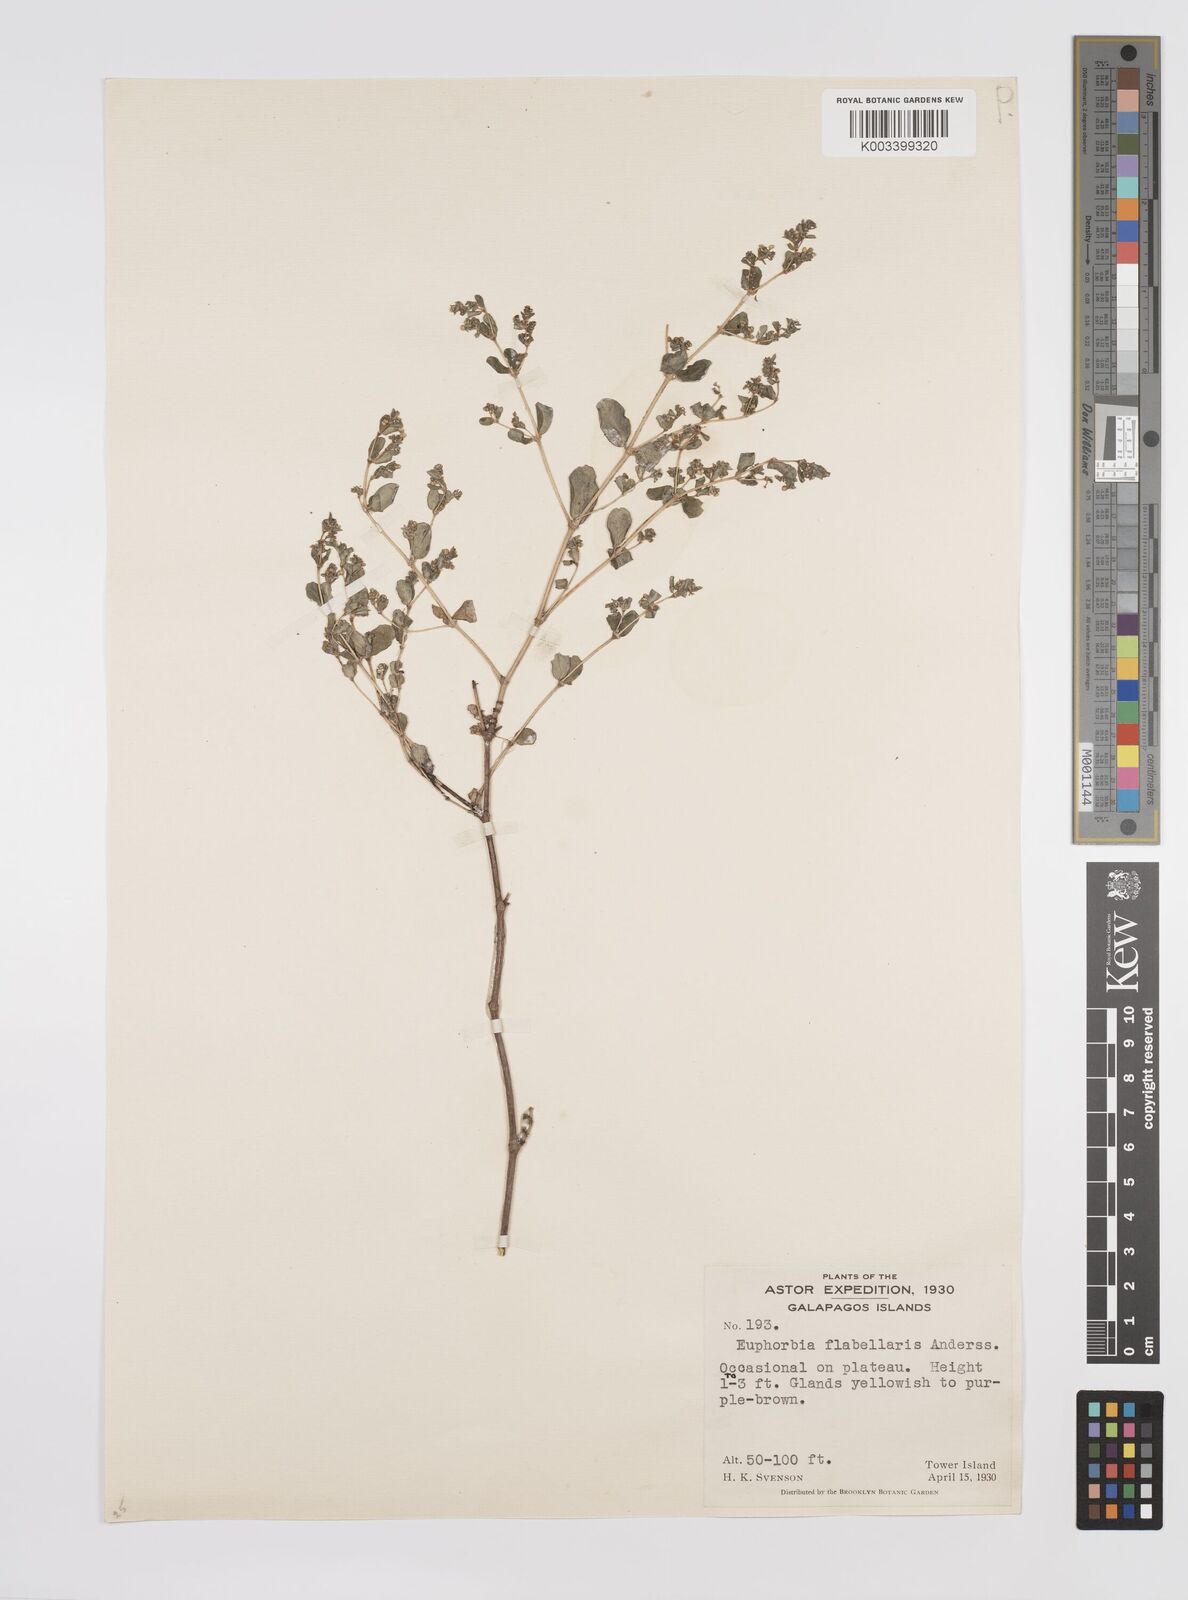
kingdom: Plantae
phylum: Tracheophyta
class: Magnoliopsida
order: Malpighiales
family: Euphorbiaceae
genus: Euphorbia
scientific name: Euphorbia recurva
